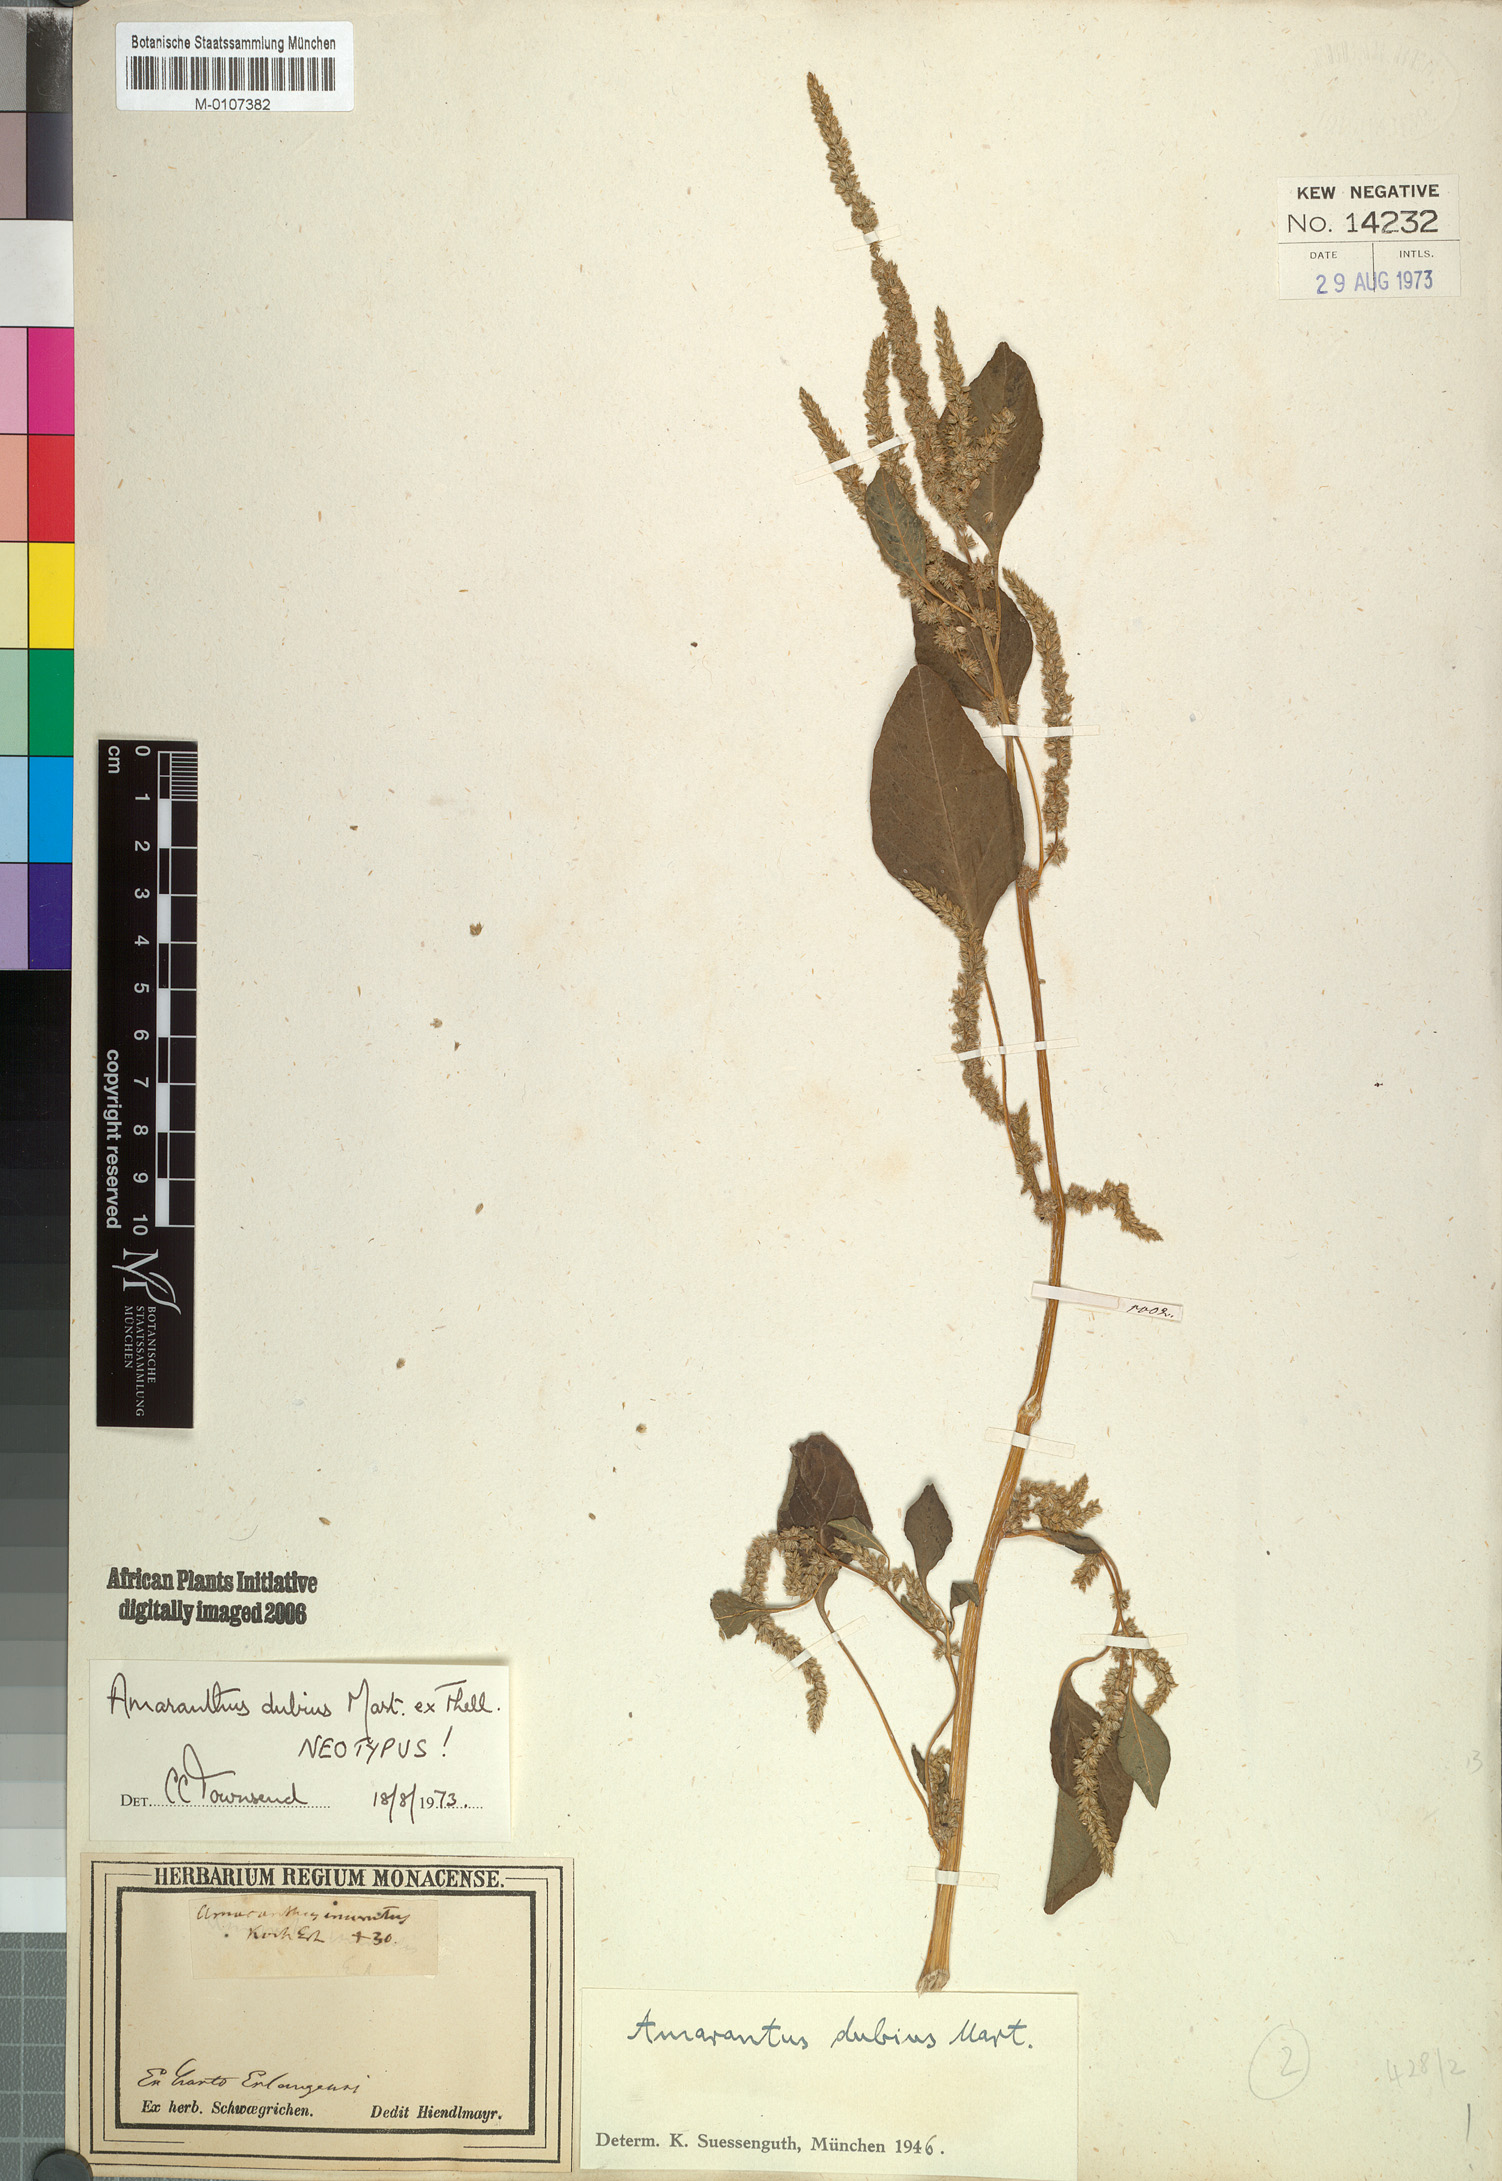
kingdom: Plantae
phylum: Tracheophyta
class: Magnoliopsida
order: Caryophyllales
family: Amaranthaceae
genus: Amaranthus
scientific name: Amaranthus dubius
